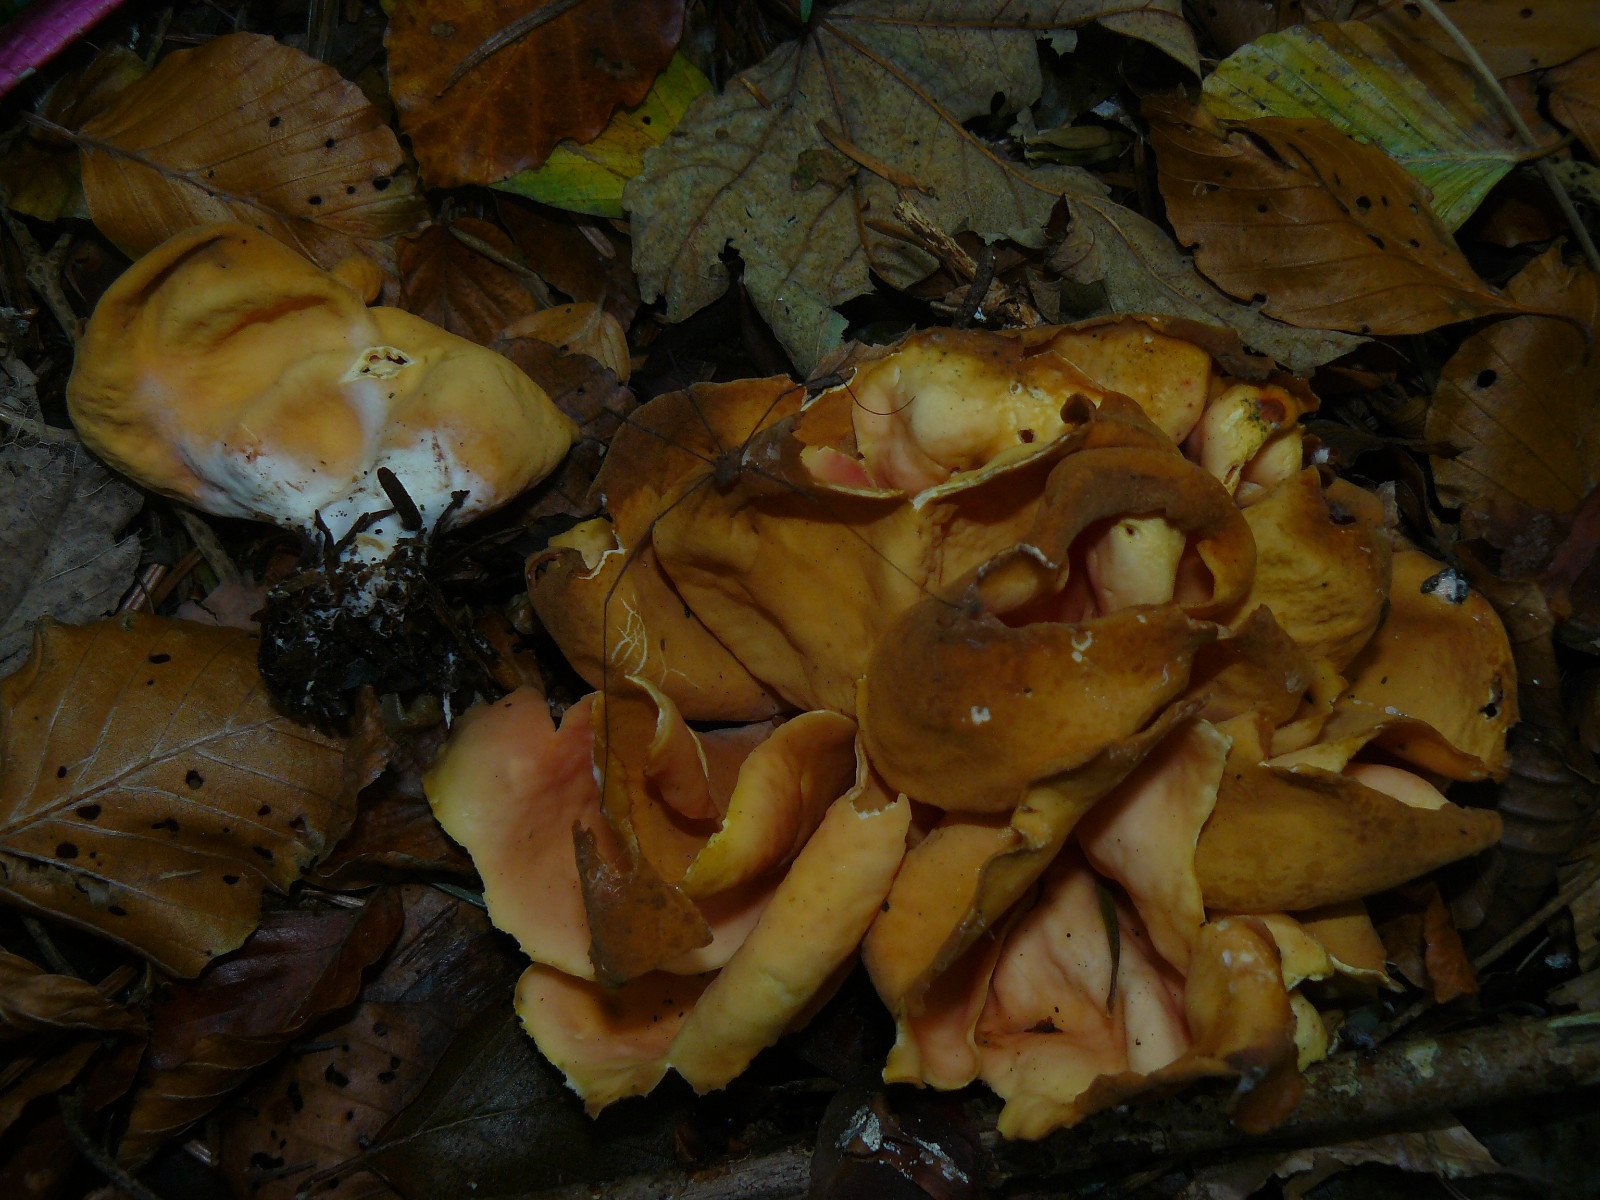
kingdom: Fungi
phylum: Ascomycota
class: Pezizomycetes
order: Pezizales
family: Otideaceae
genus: Otidea
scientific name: Otidea onotica
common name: æsel-ørebæger
